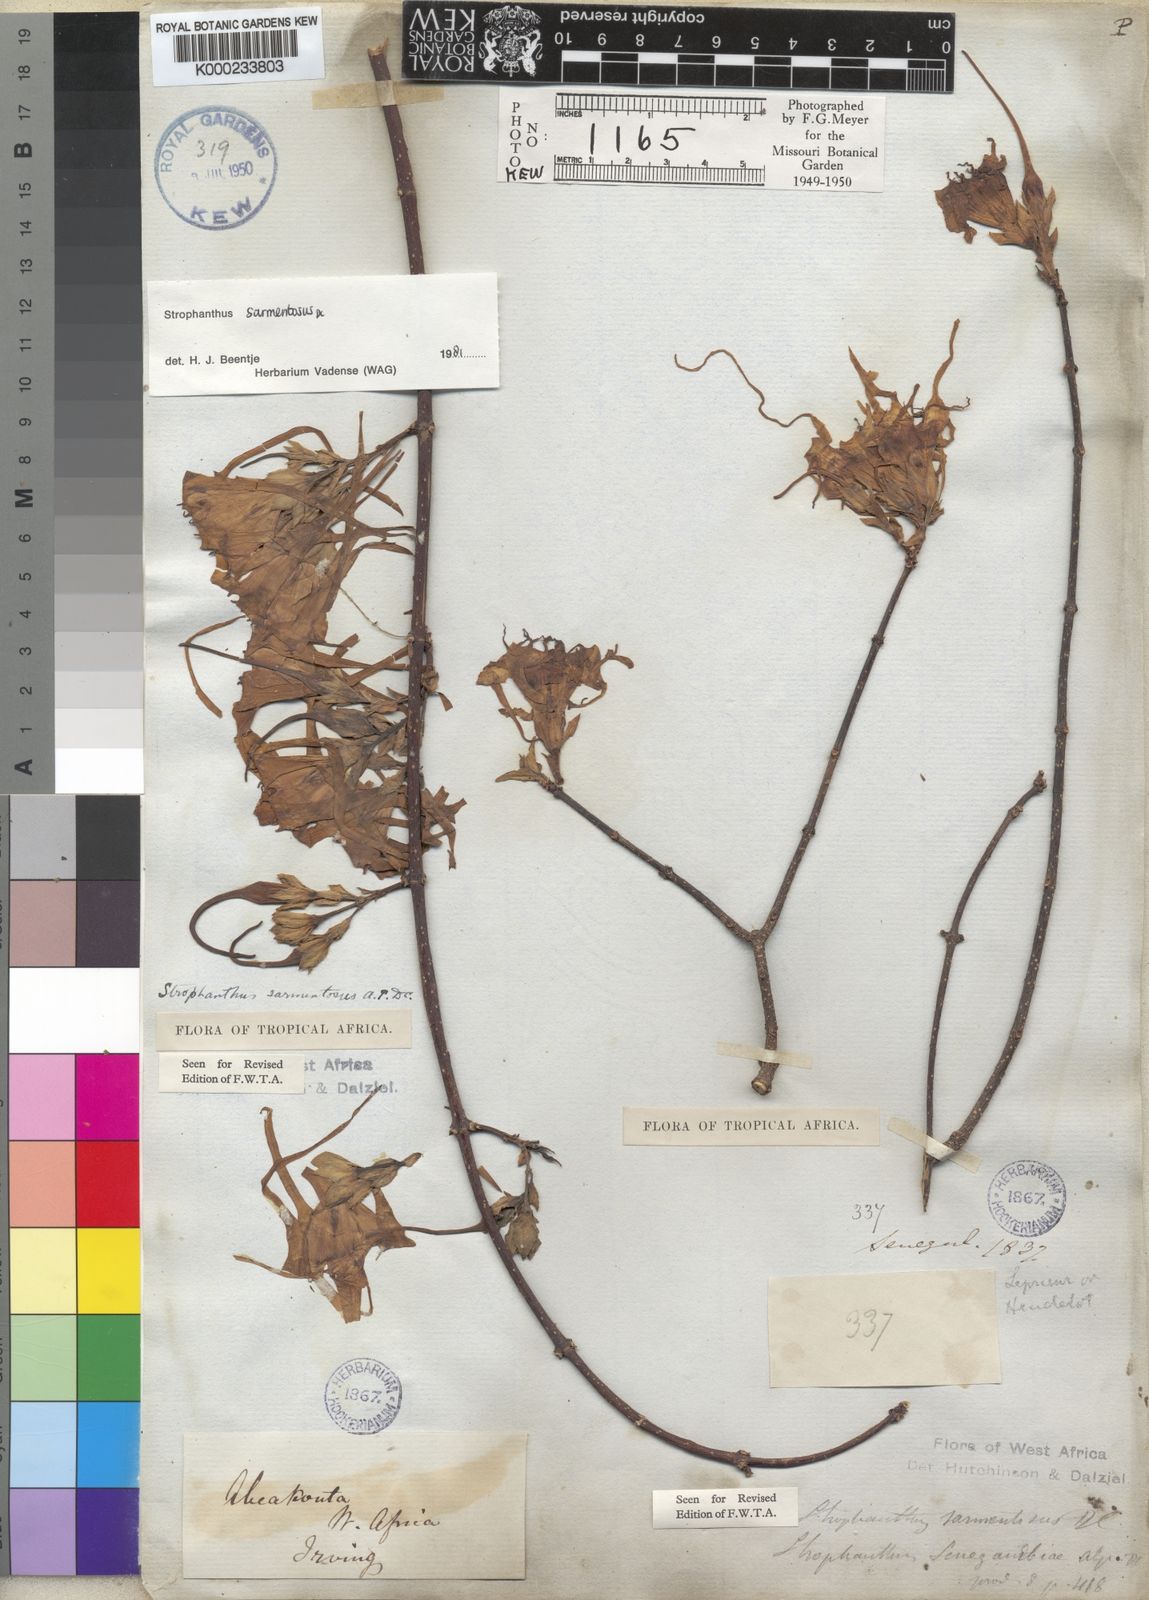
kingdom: Plantae
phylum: Tracheophyta
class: Magnoliopsida
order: Gentianales
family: Apocynaceae
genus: Strophanthus
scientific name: Strophanthus sarmentosus
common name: Poison arrowvine
